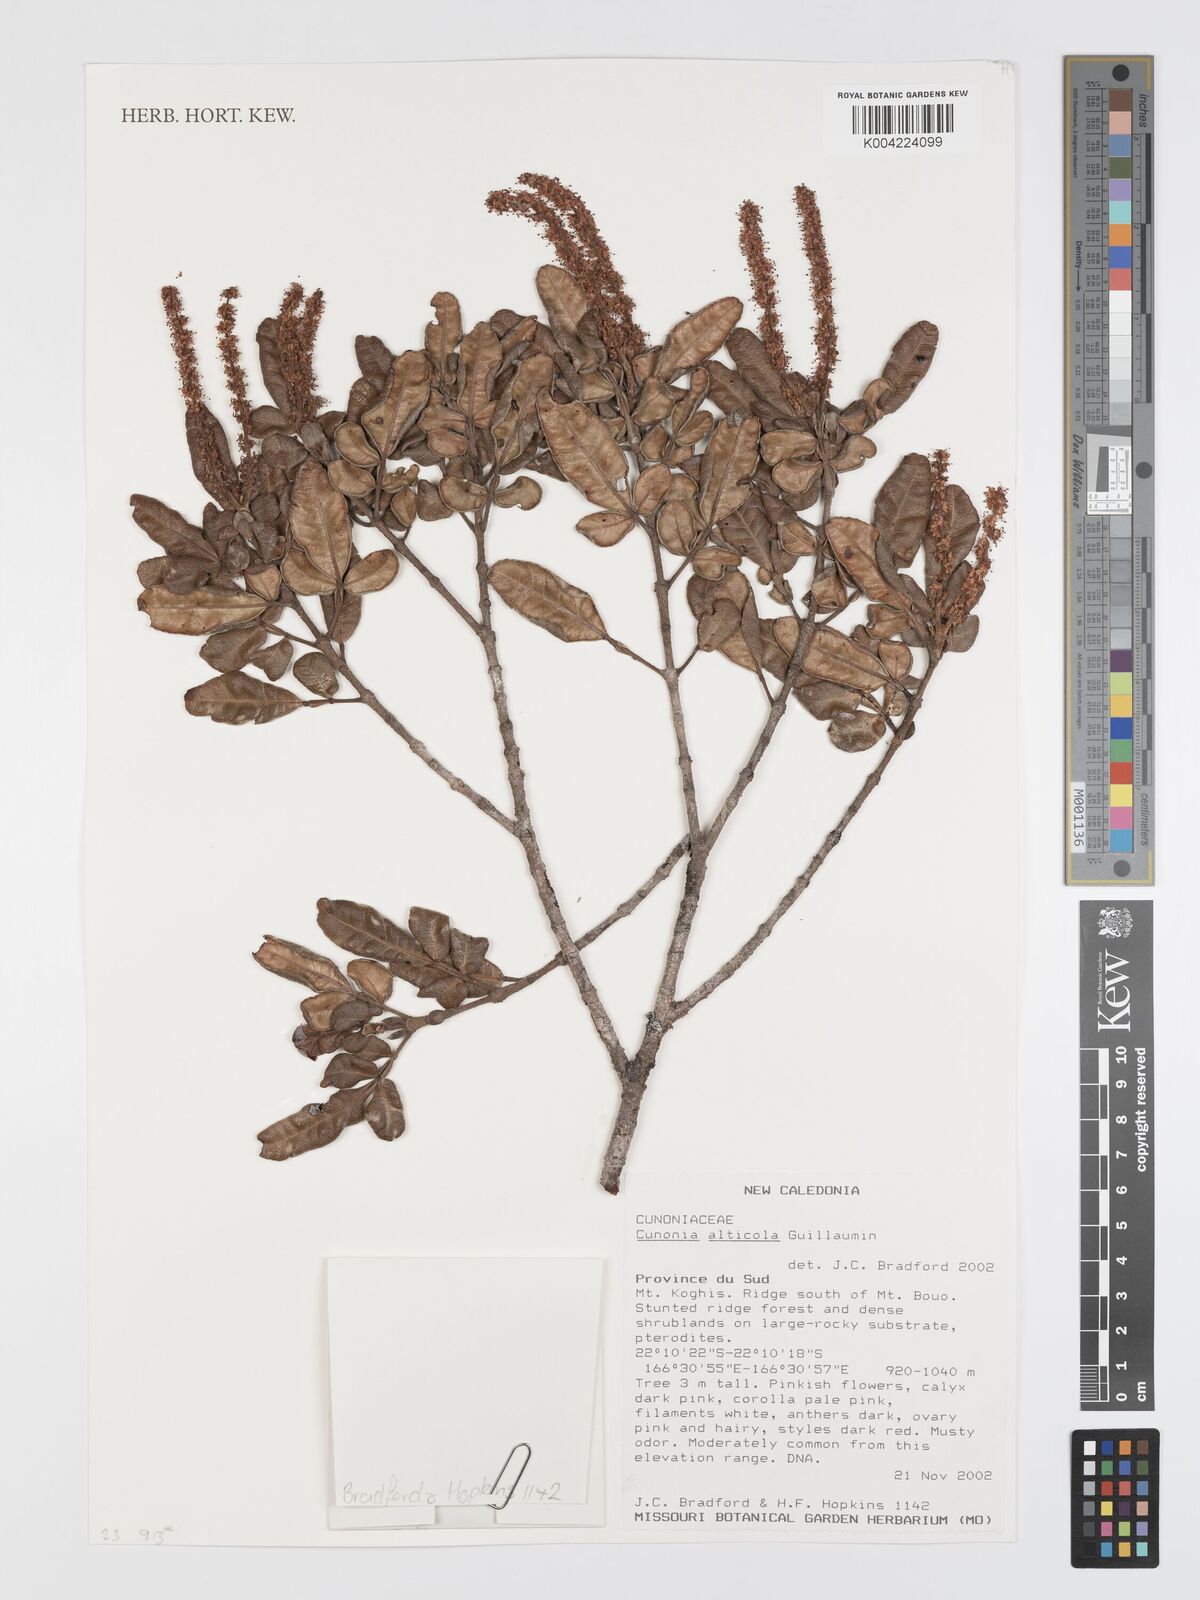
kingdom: Plantae
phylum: Tracheophyta
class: Magnoliopsida
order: Oxalidales
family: Cunoniaceae
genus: Cunonia
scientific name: Cunonia alticola
